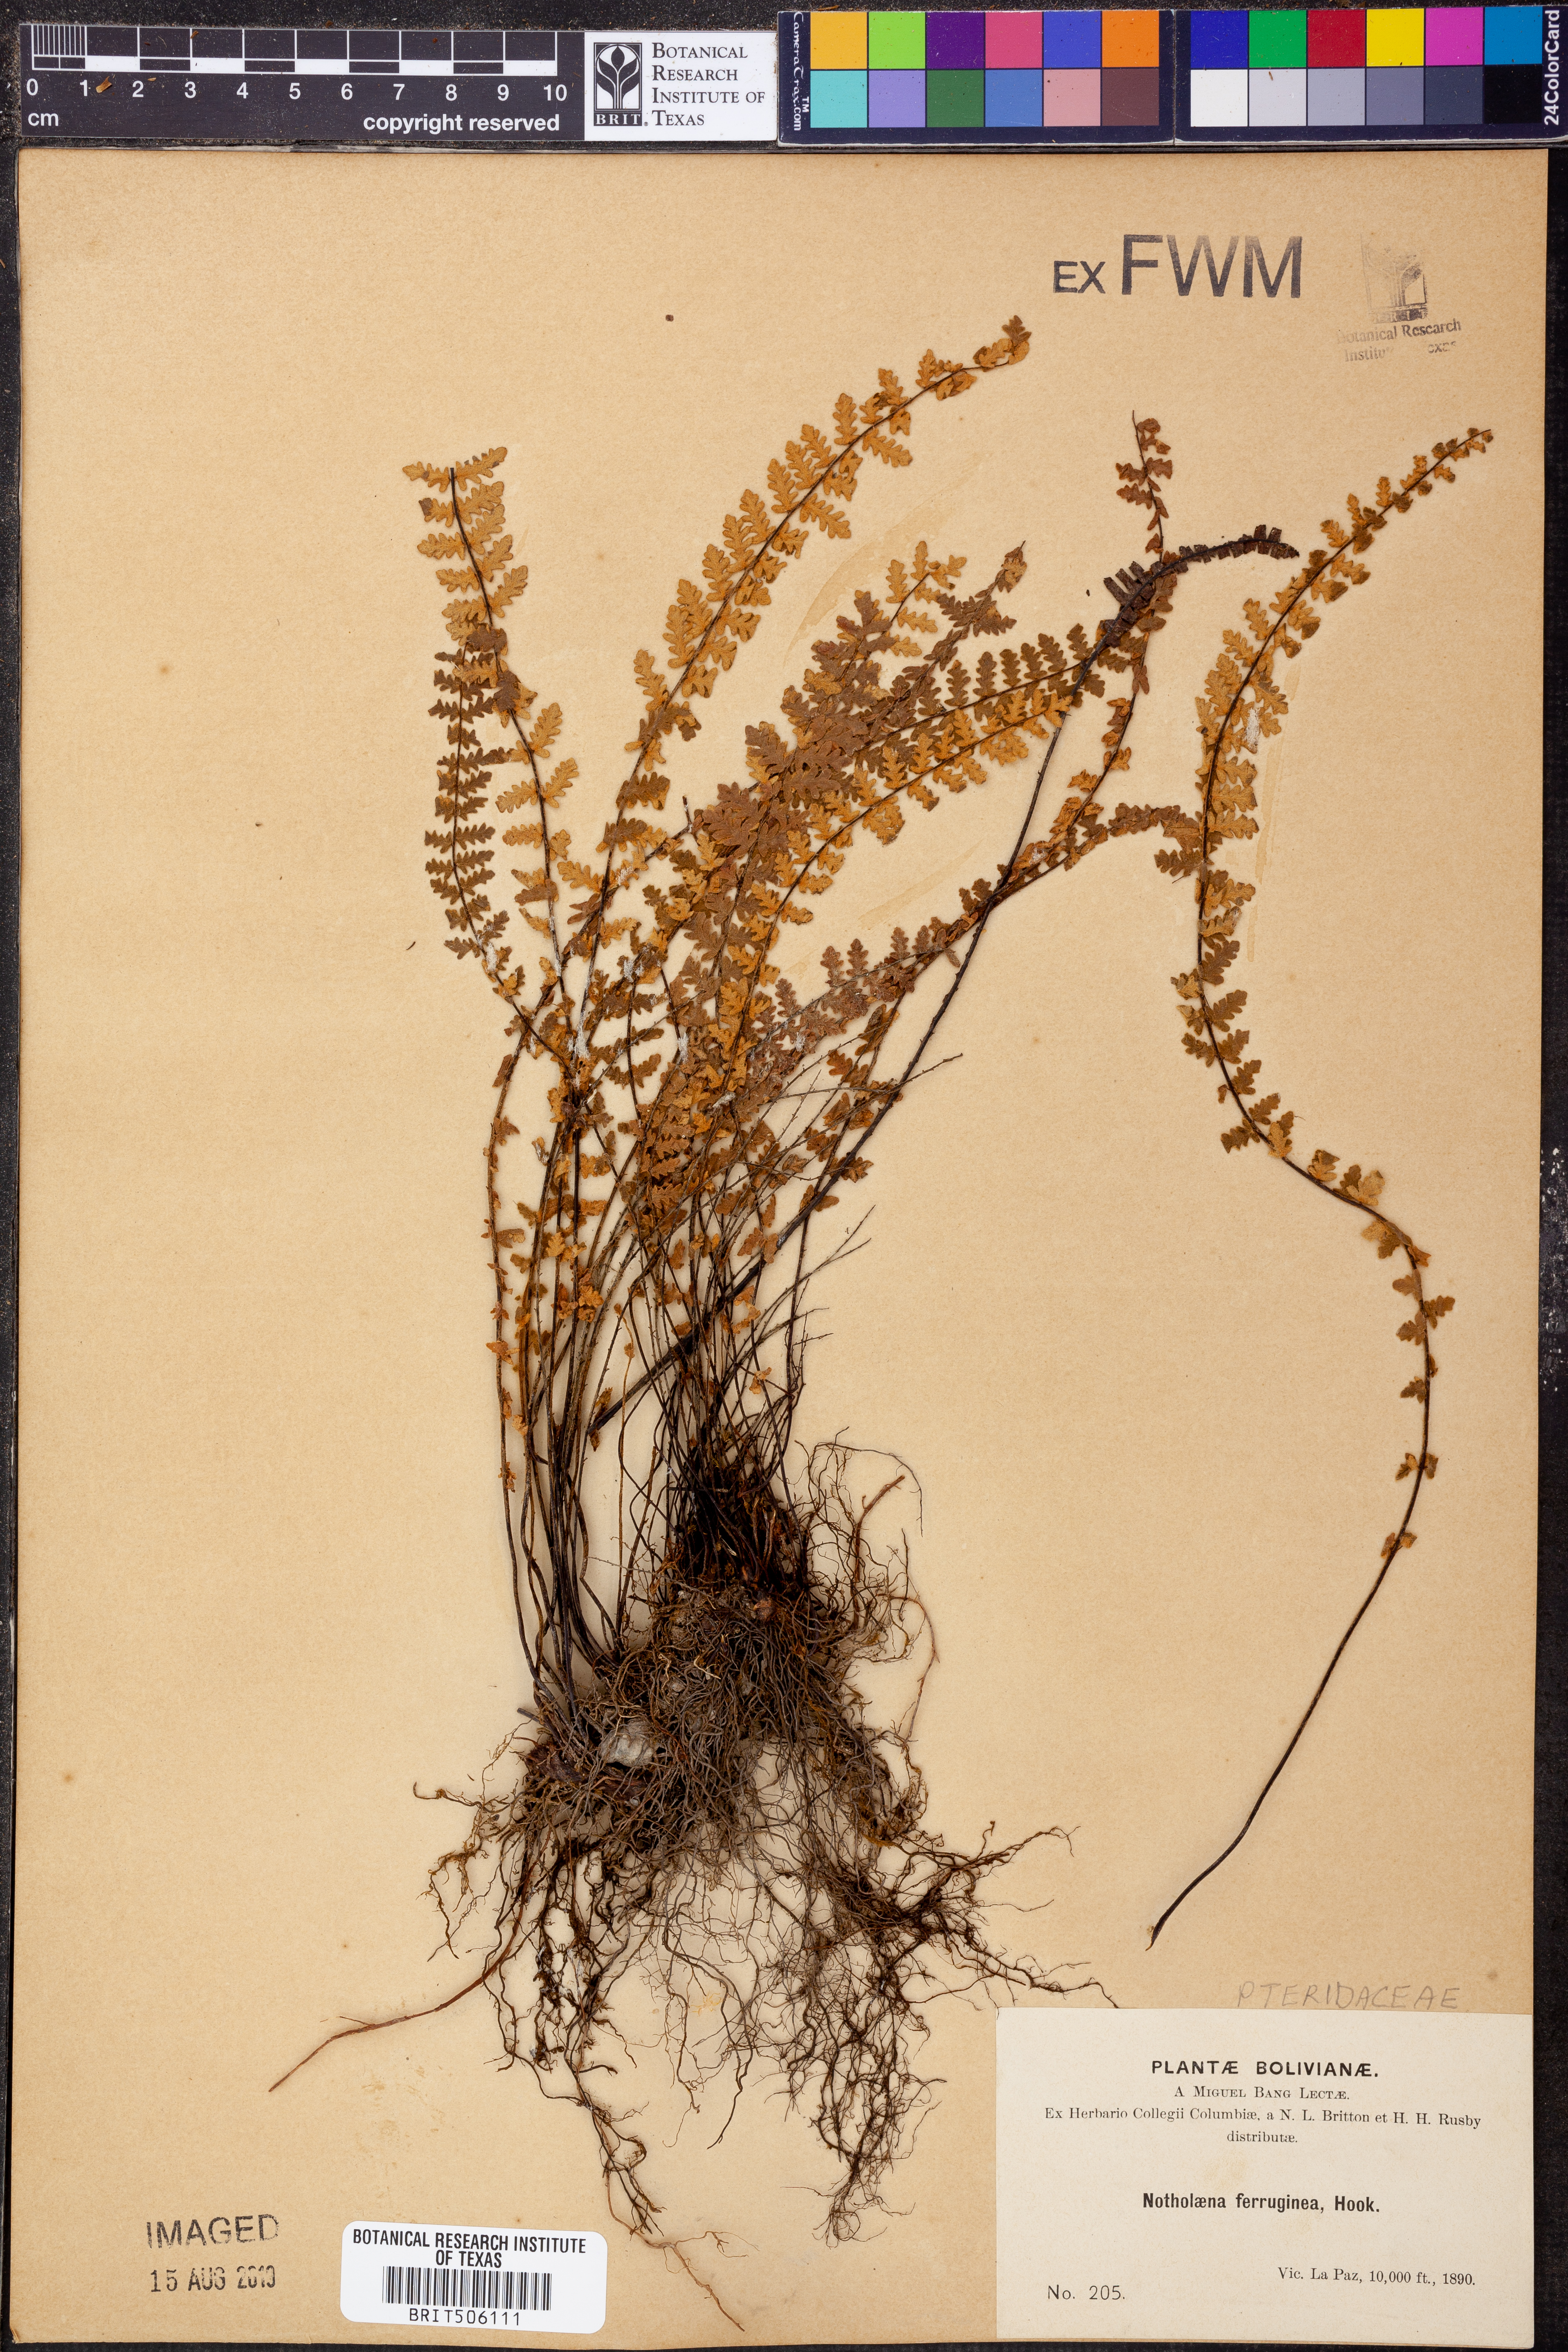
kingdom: Plantae
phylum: Tracheophyta
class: Polypodiopsida
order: Polypodiales
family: Pteridaceae
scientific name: Pteridaceae
